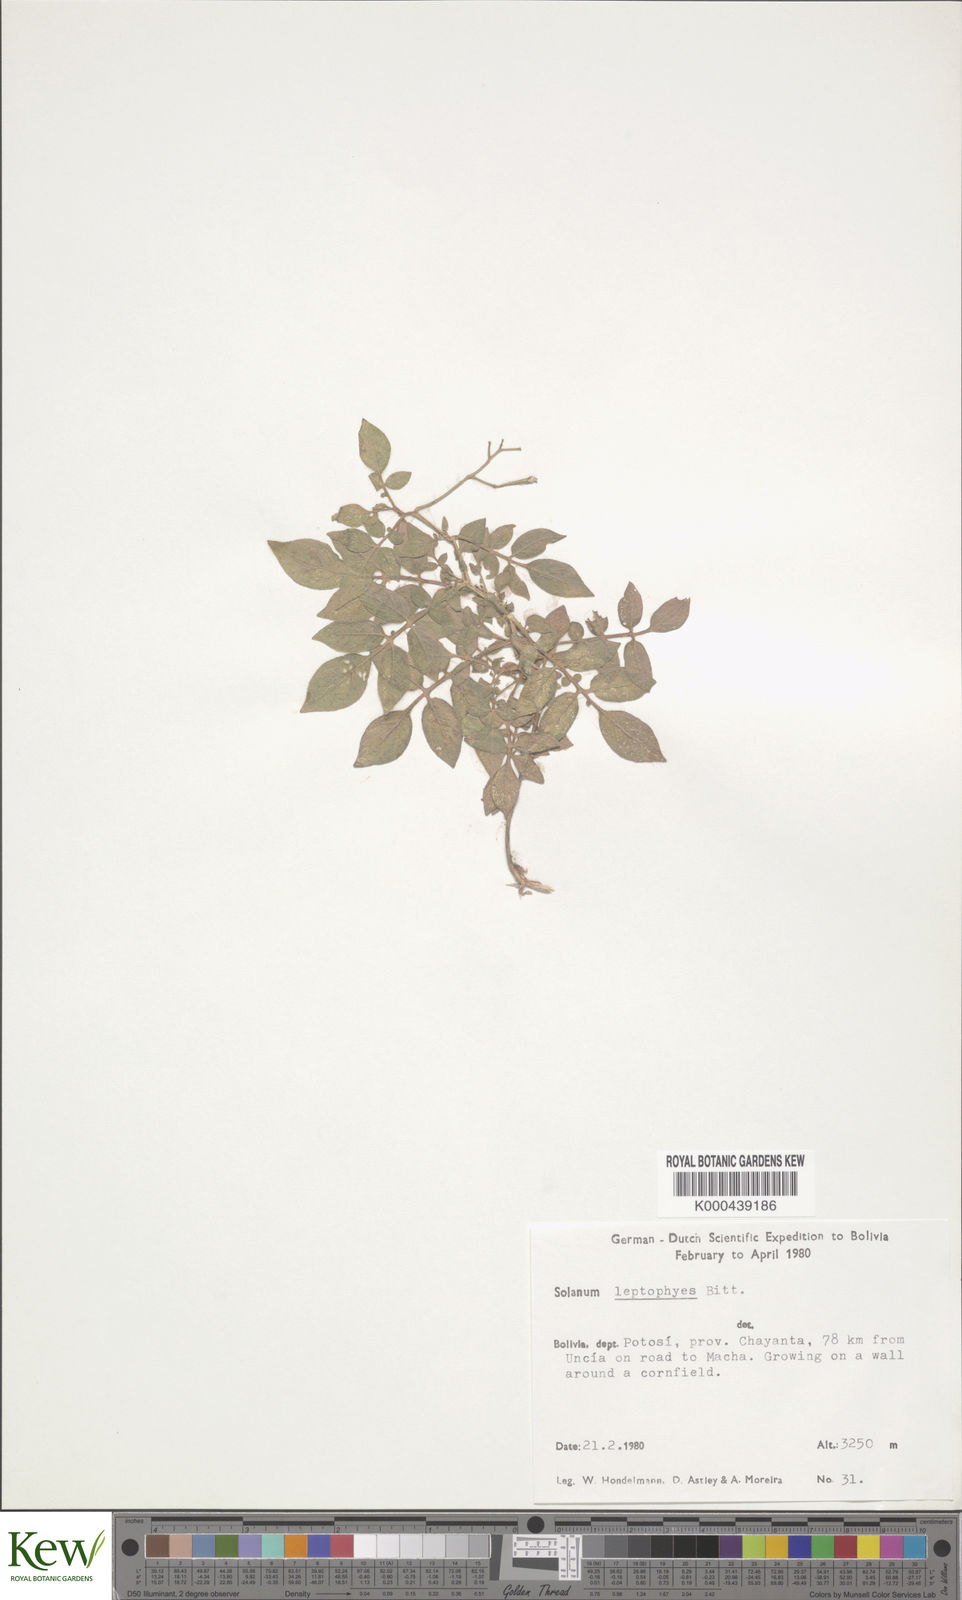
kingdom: Plantae
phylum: Tracheophyta
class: Magnoliopsida
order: Solanales
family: Solanaceae
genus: Solanum
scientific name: Solanum brevicaule
